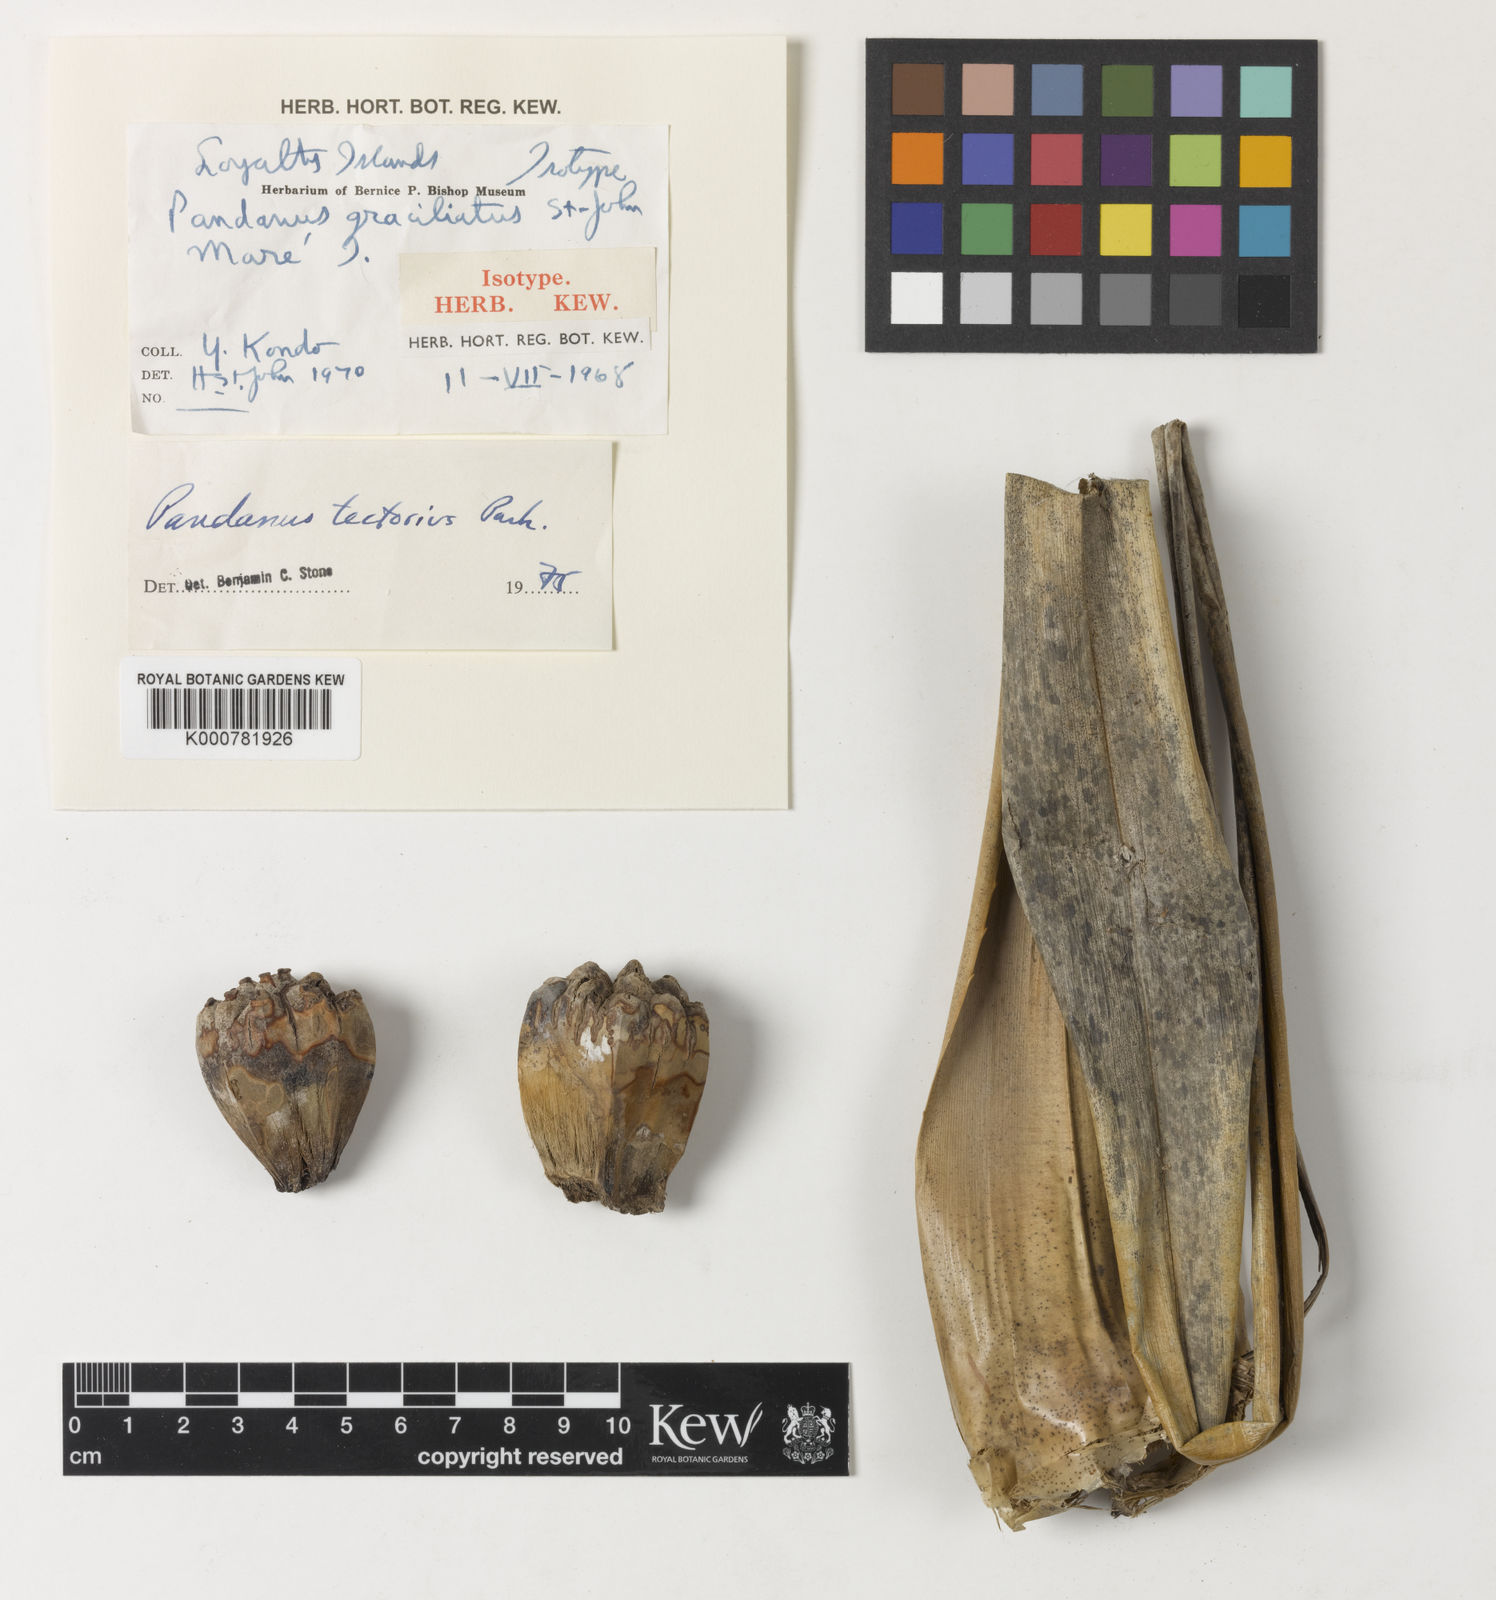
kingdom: Plantae
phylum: Tracheophyta
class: Liliopsida
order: Pandanales
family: Pandanaceae
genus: Pandanus
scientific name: Pandanus
